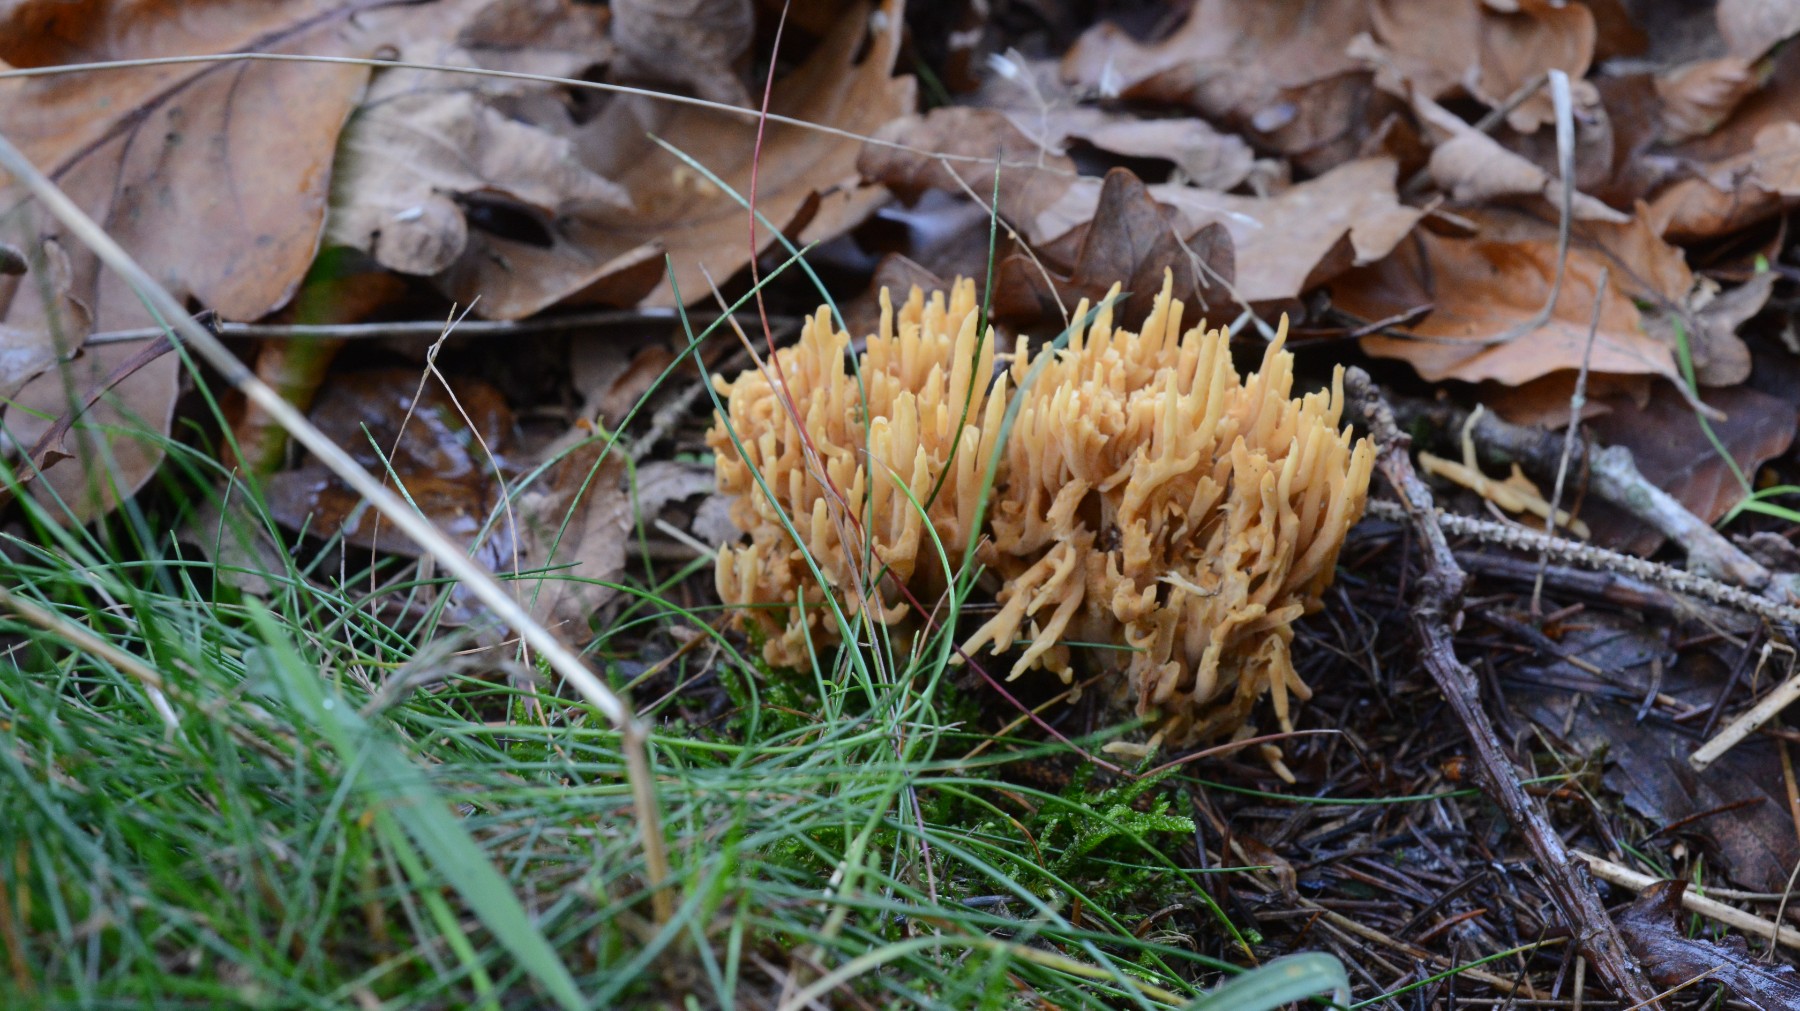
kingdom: Fungi
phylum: Basidiomycota
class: Agaricomycetes
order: Gomphales
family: Gomphaceae
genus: Phaeoclavulina
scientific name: Phaeoclavulina eumorpha
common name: gran-koralsvamp
